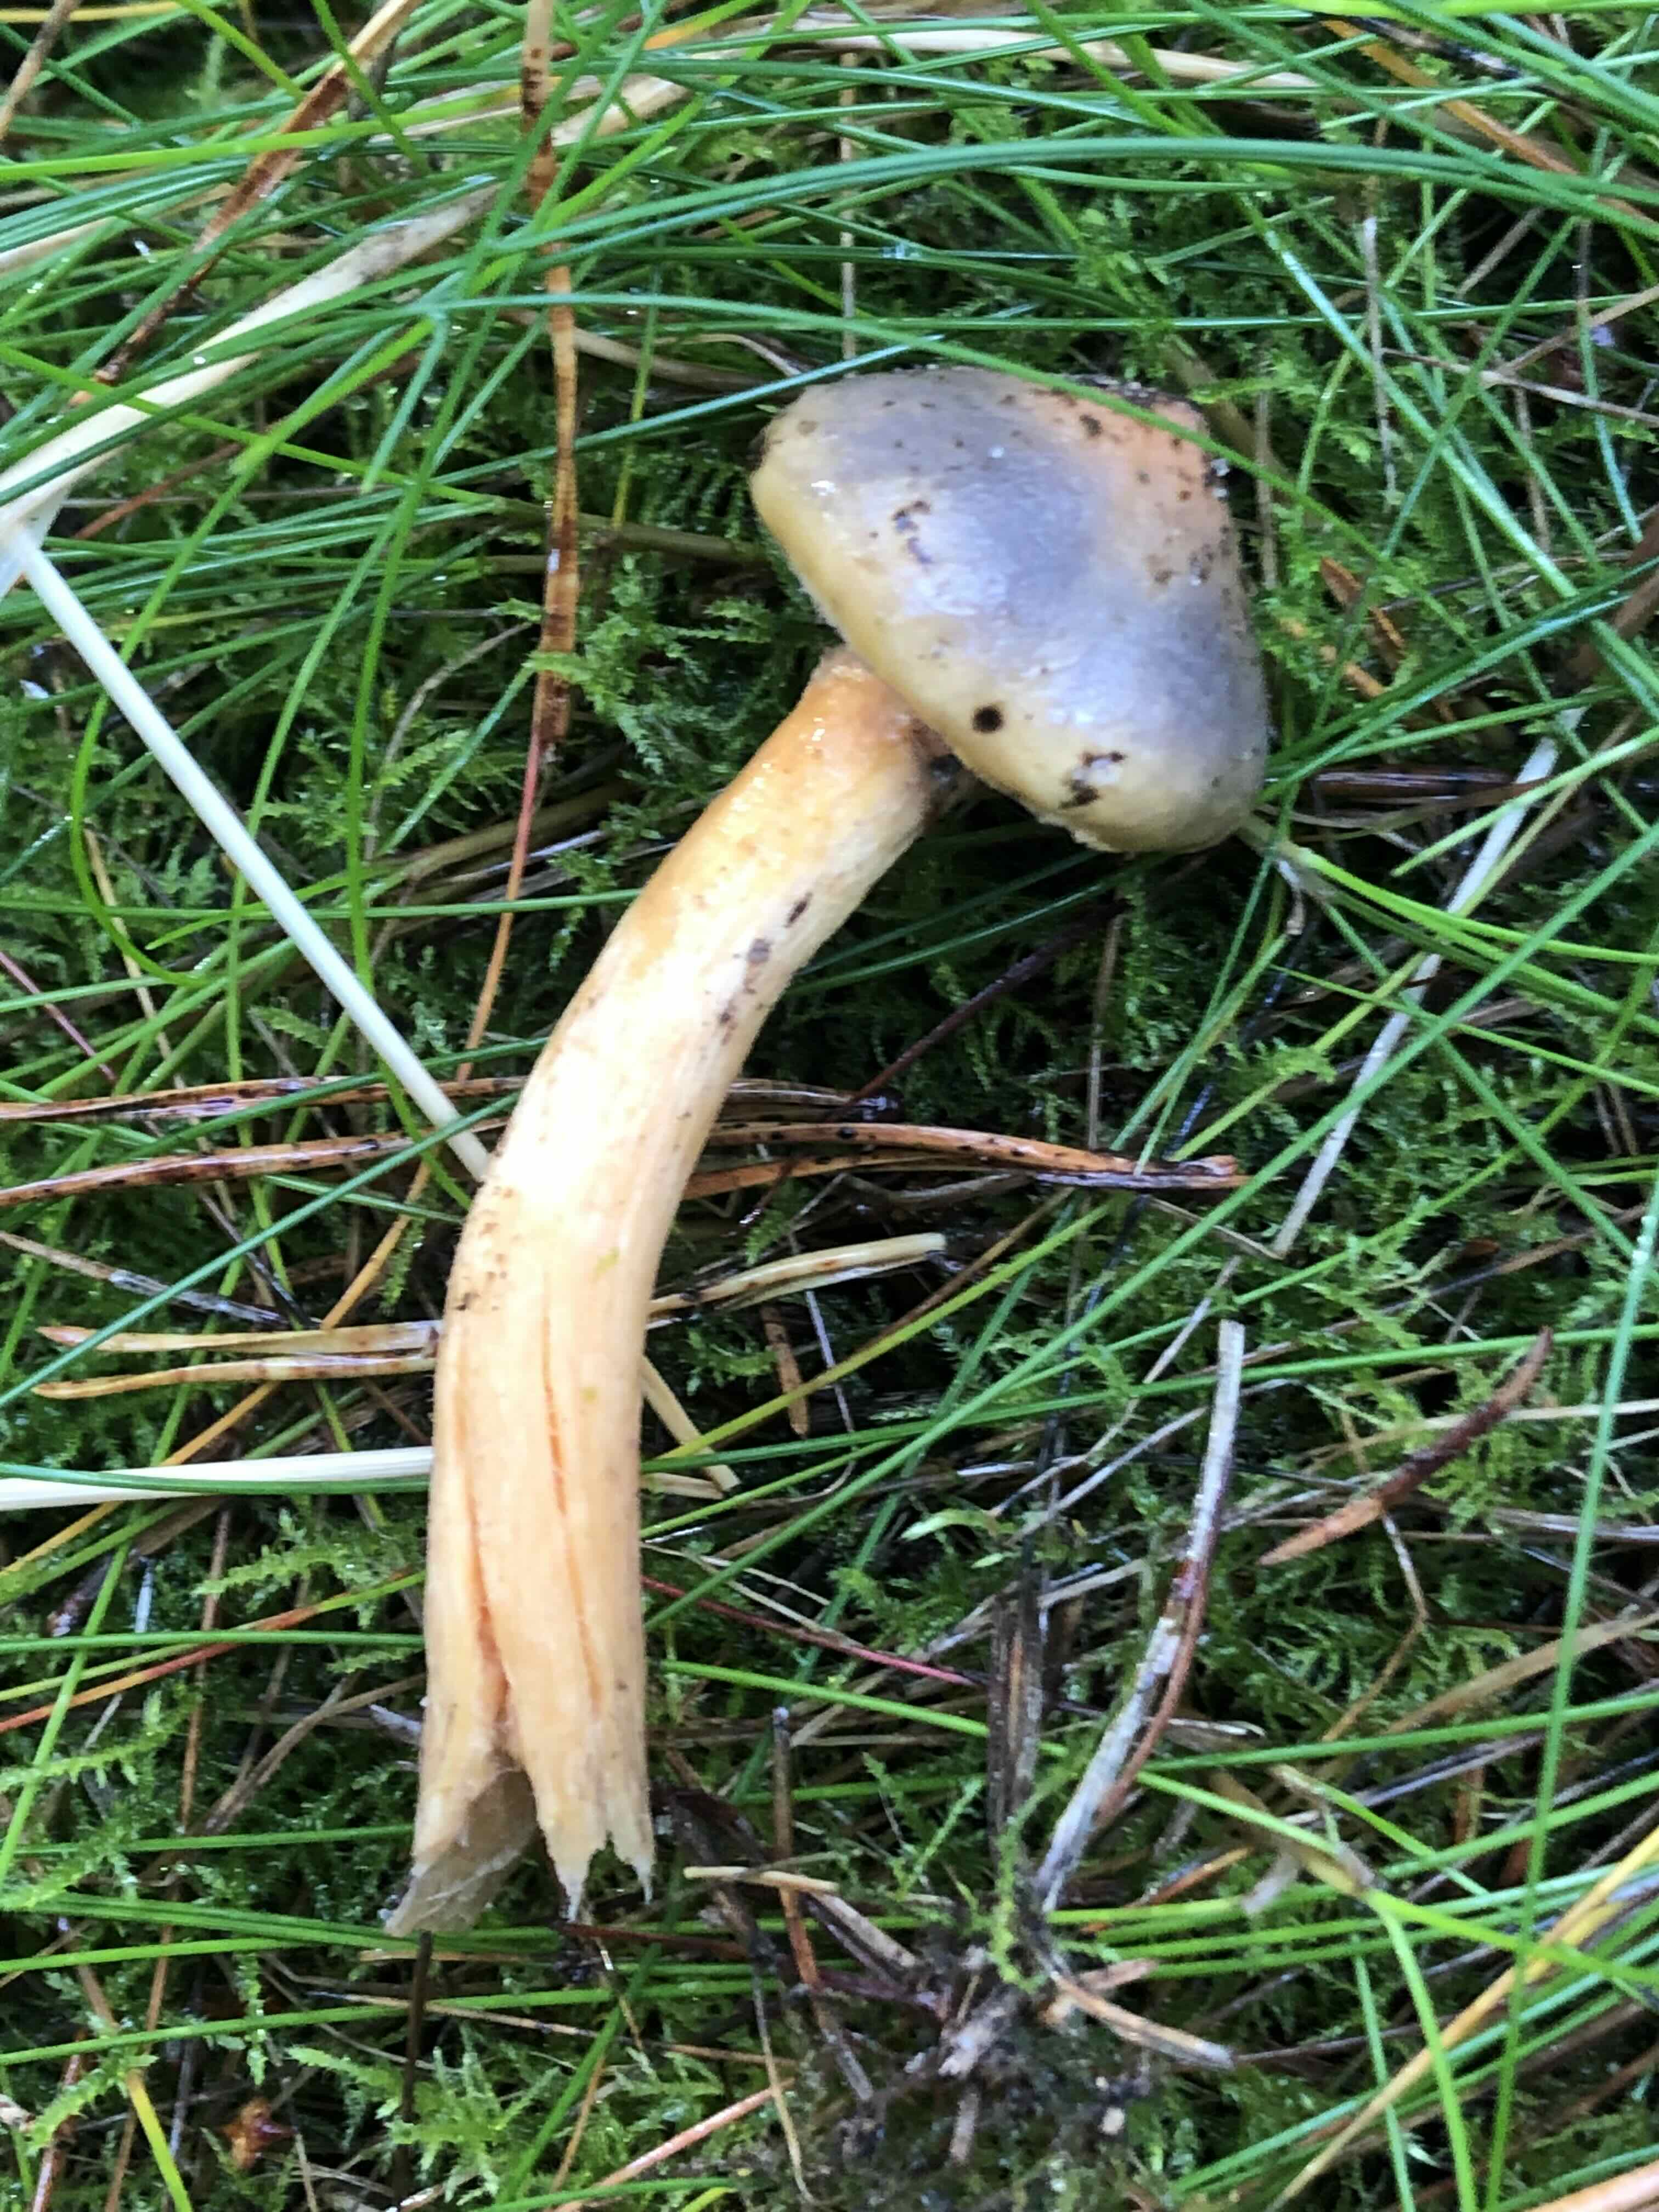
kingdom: Fungi
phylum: Basidiomycota
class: Agaricomycetes
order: Boletales
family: Gomphidiaceae
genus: Chroogomphus
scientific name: Chroogomphus
